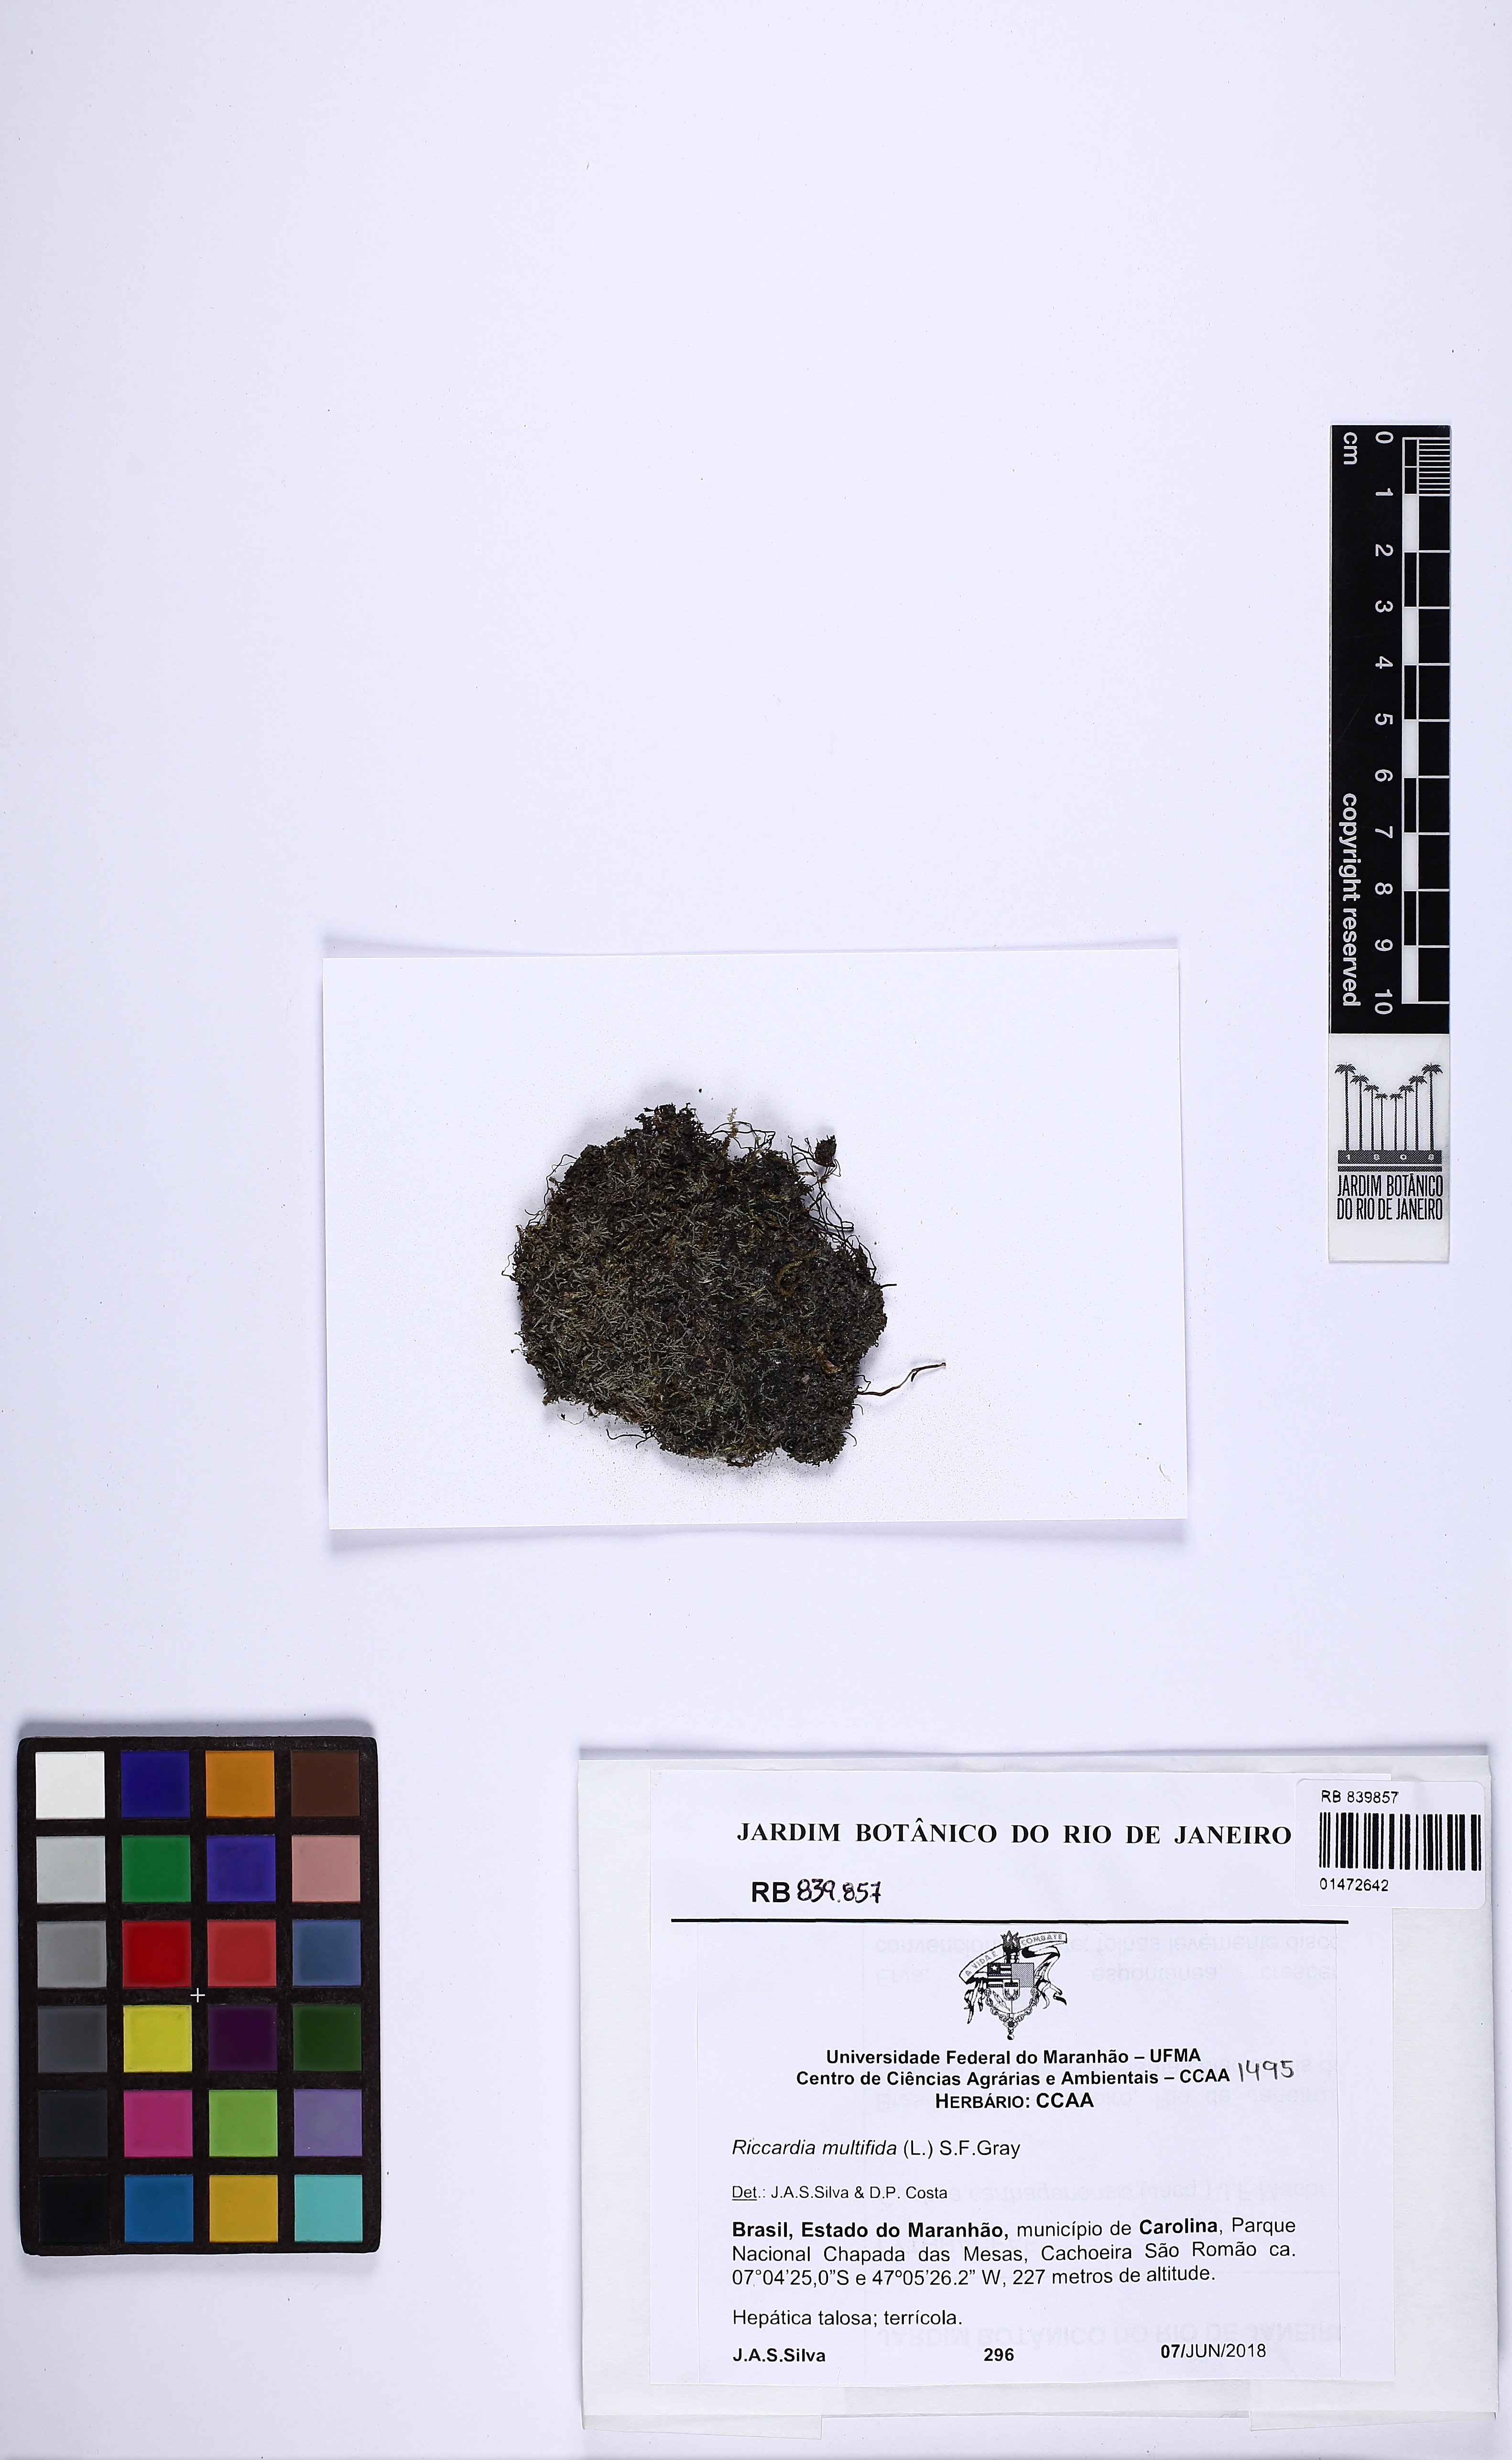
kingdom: Plantae
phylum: Marchantiophyta
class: Jungermanniopsida
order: Metzgeriales
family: Aneuraceae
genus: Riccardia
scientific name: Riccardia multifida
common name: Delicate germanderwort
